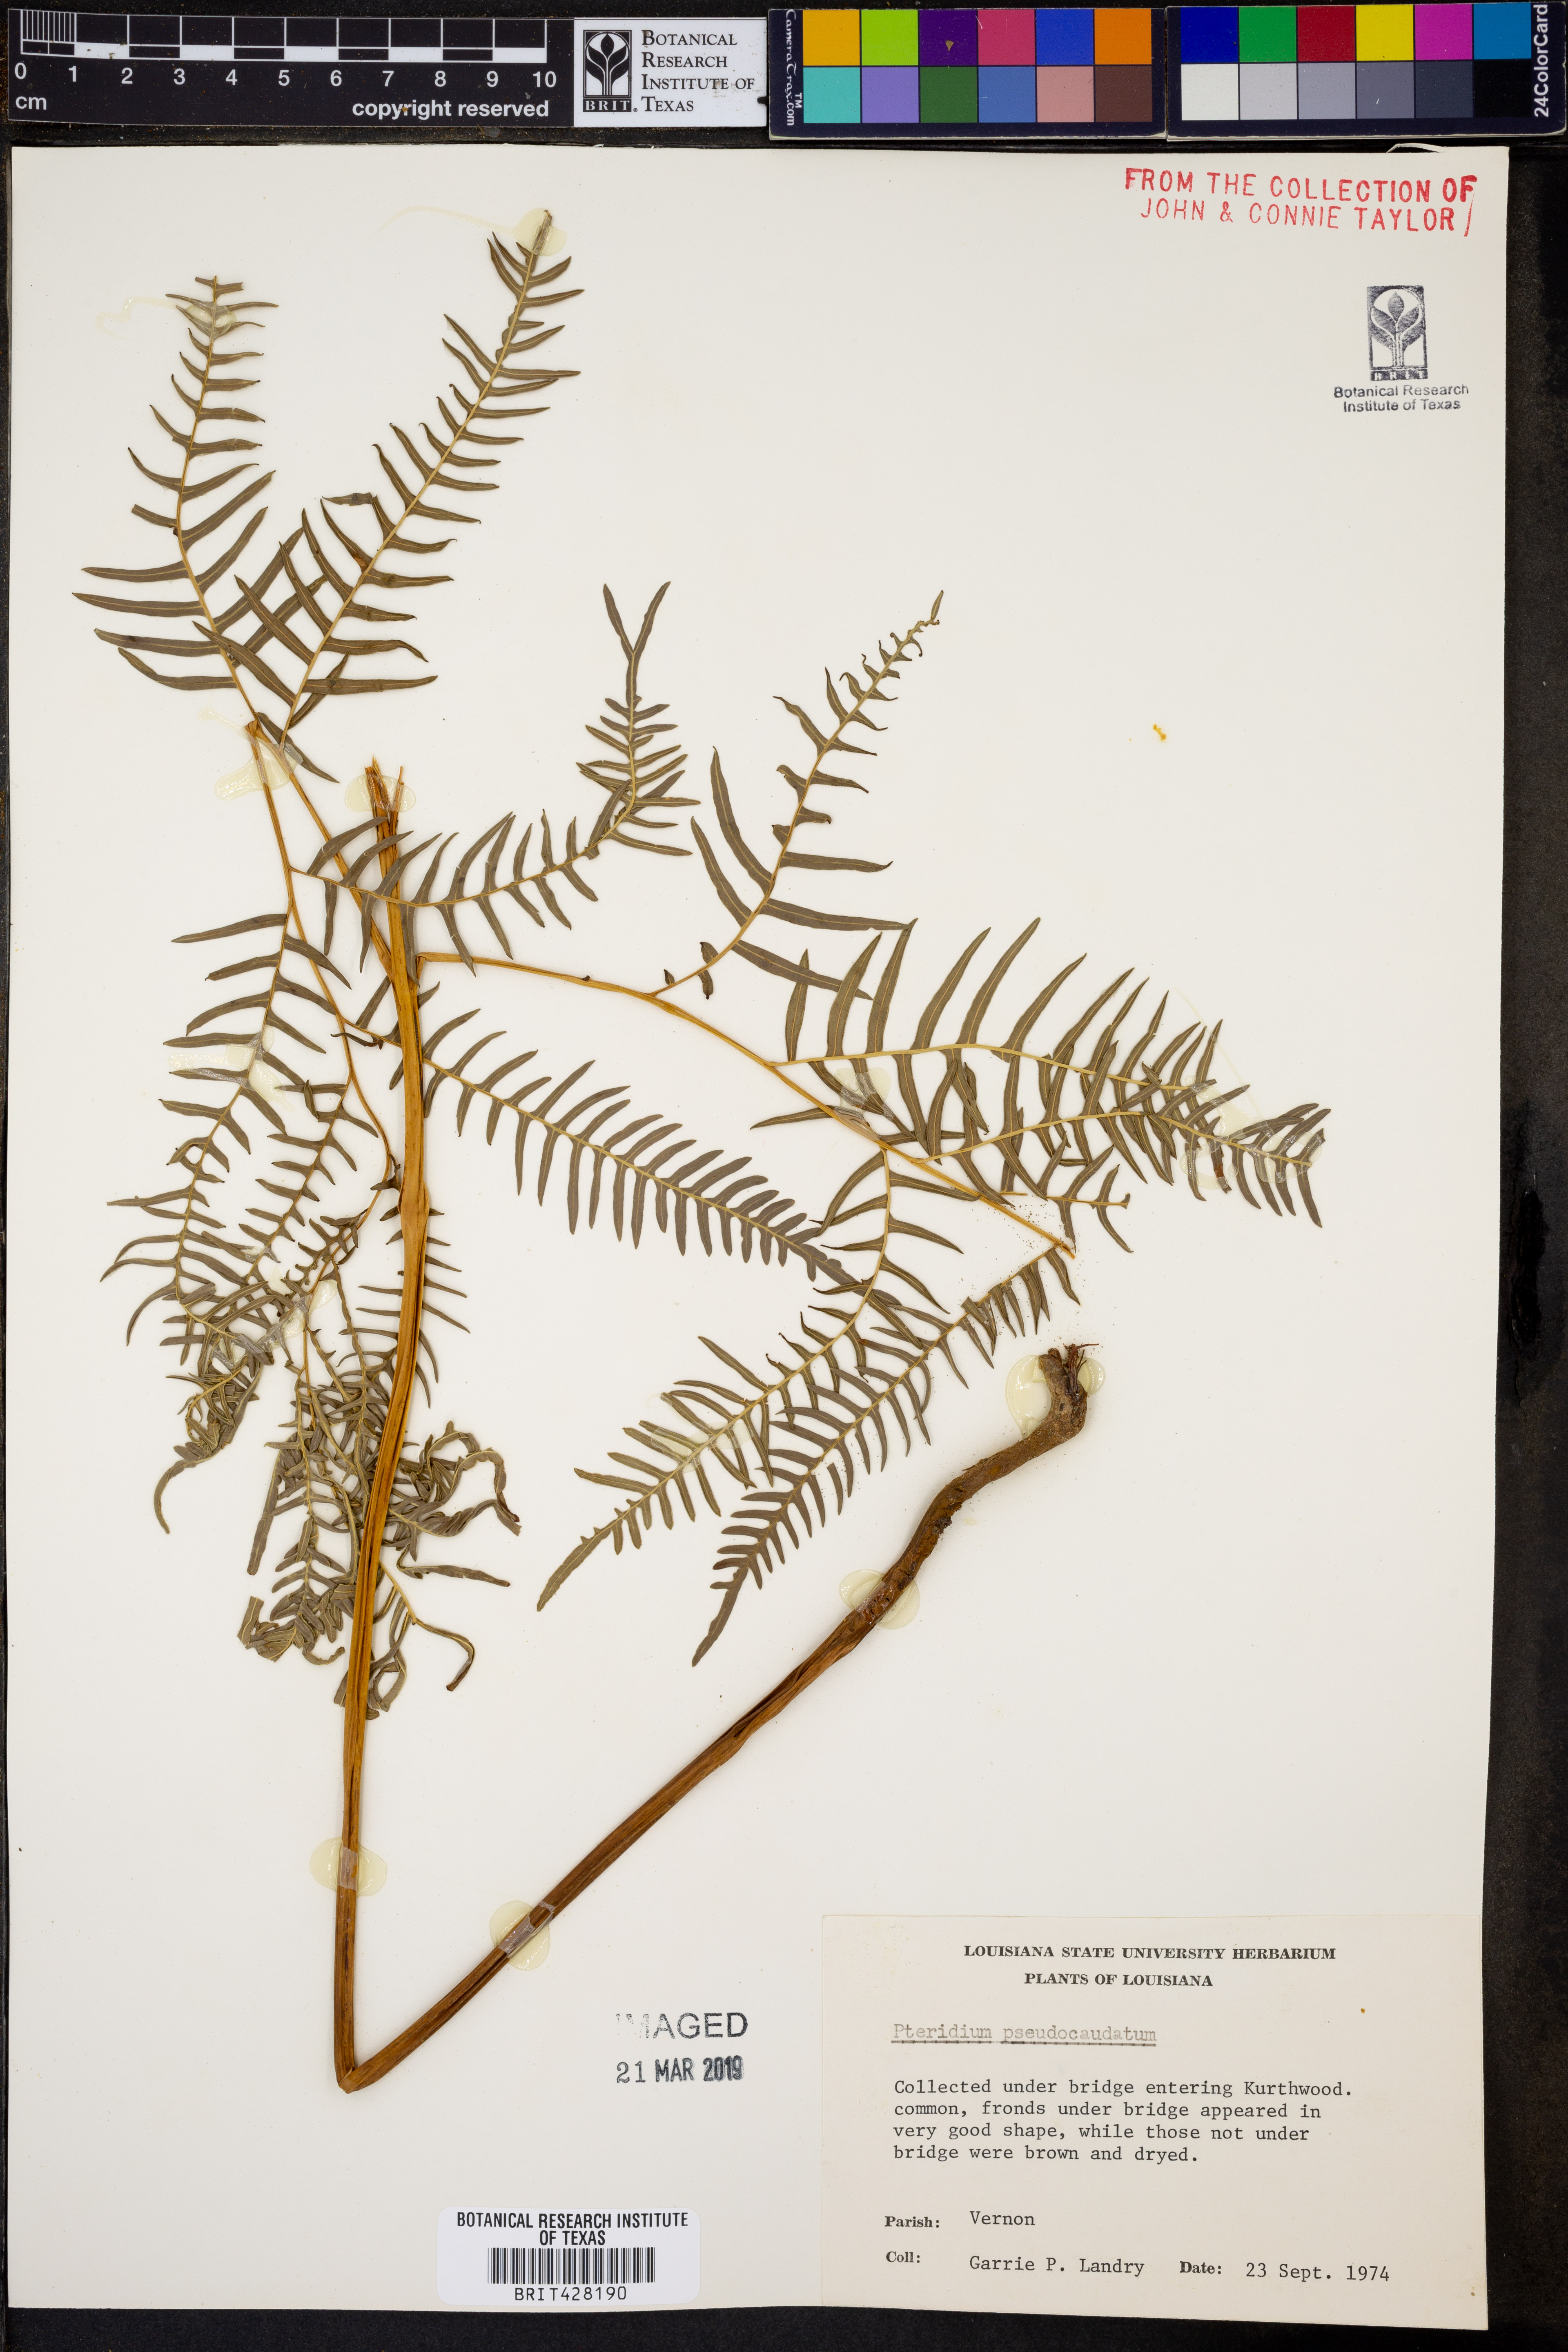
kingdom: Plantae
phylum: Tracheophyta
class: Polypodiopsida
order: Polypodiales
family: Dennstaedtiaceae
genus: Pteridium
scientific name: Pteridium aquilinum
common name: Bracken
